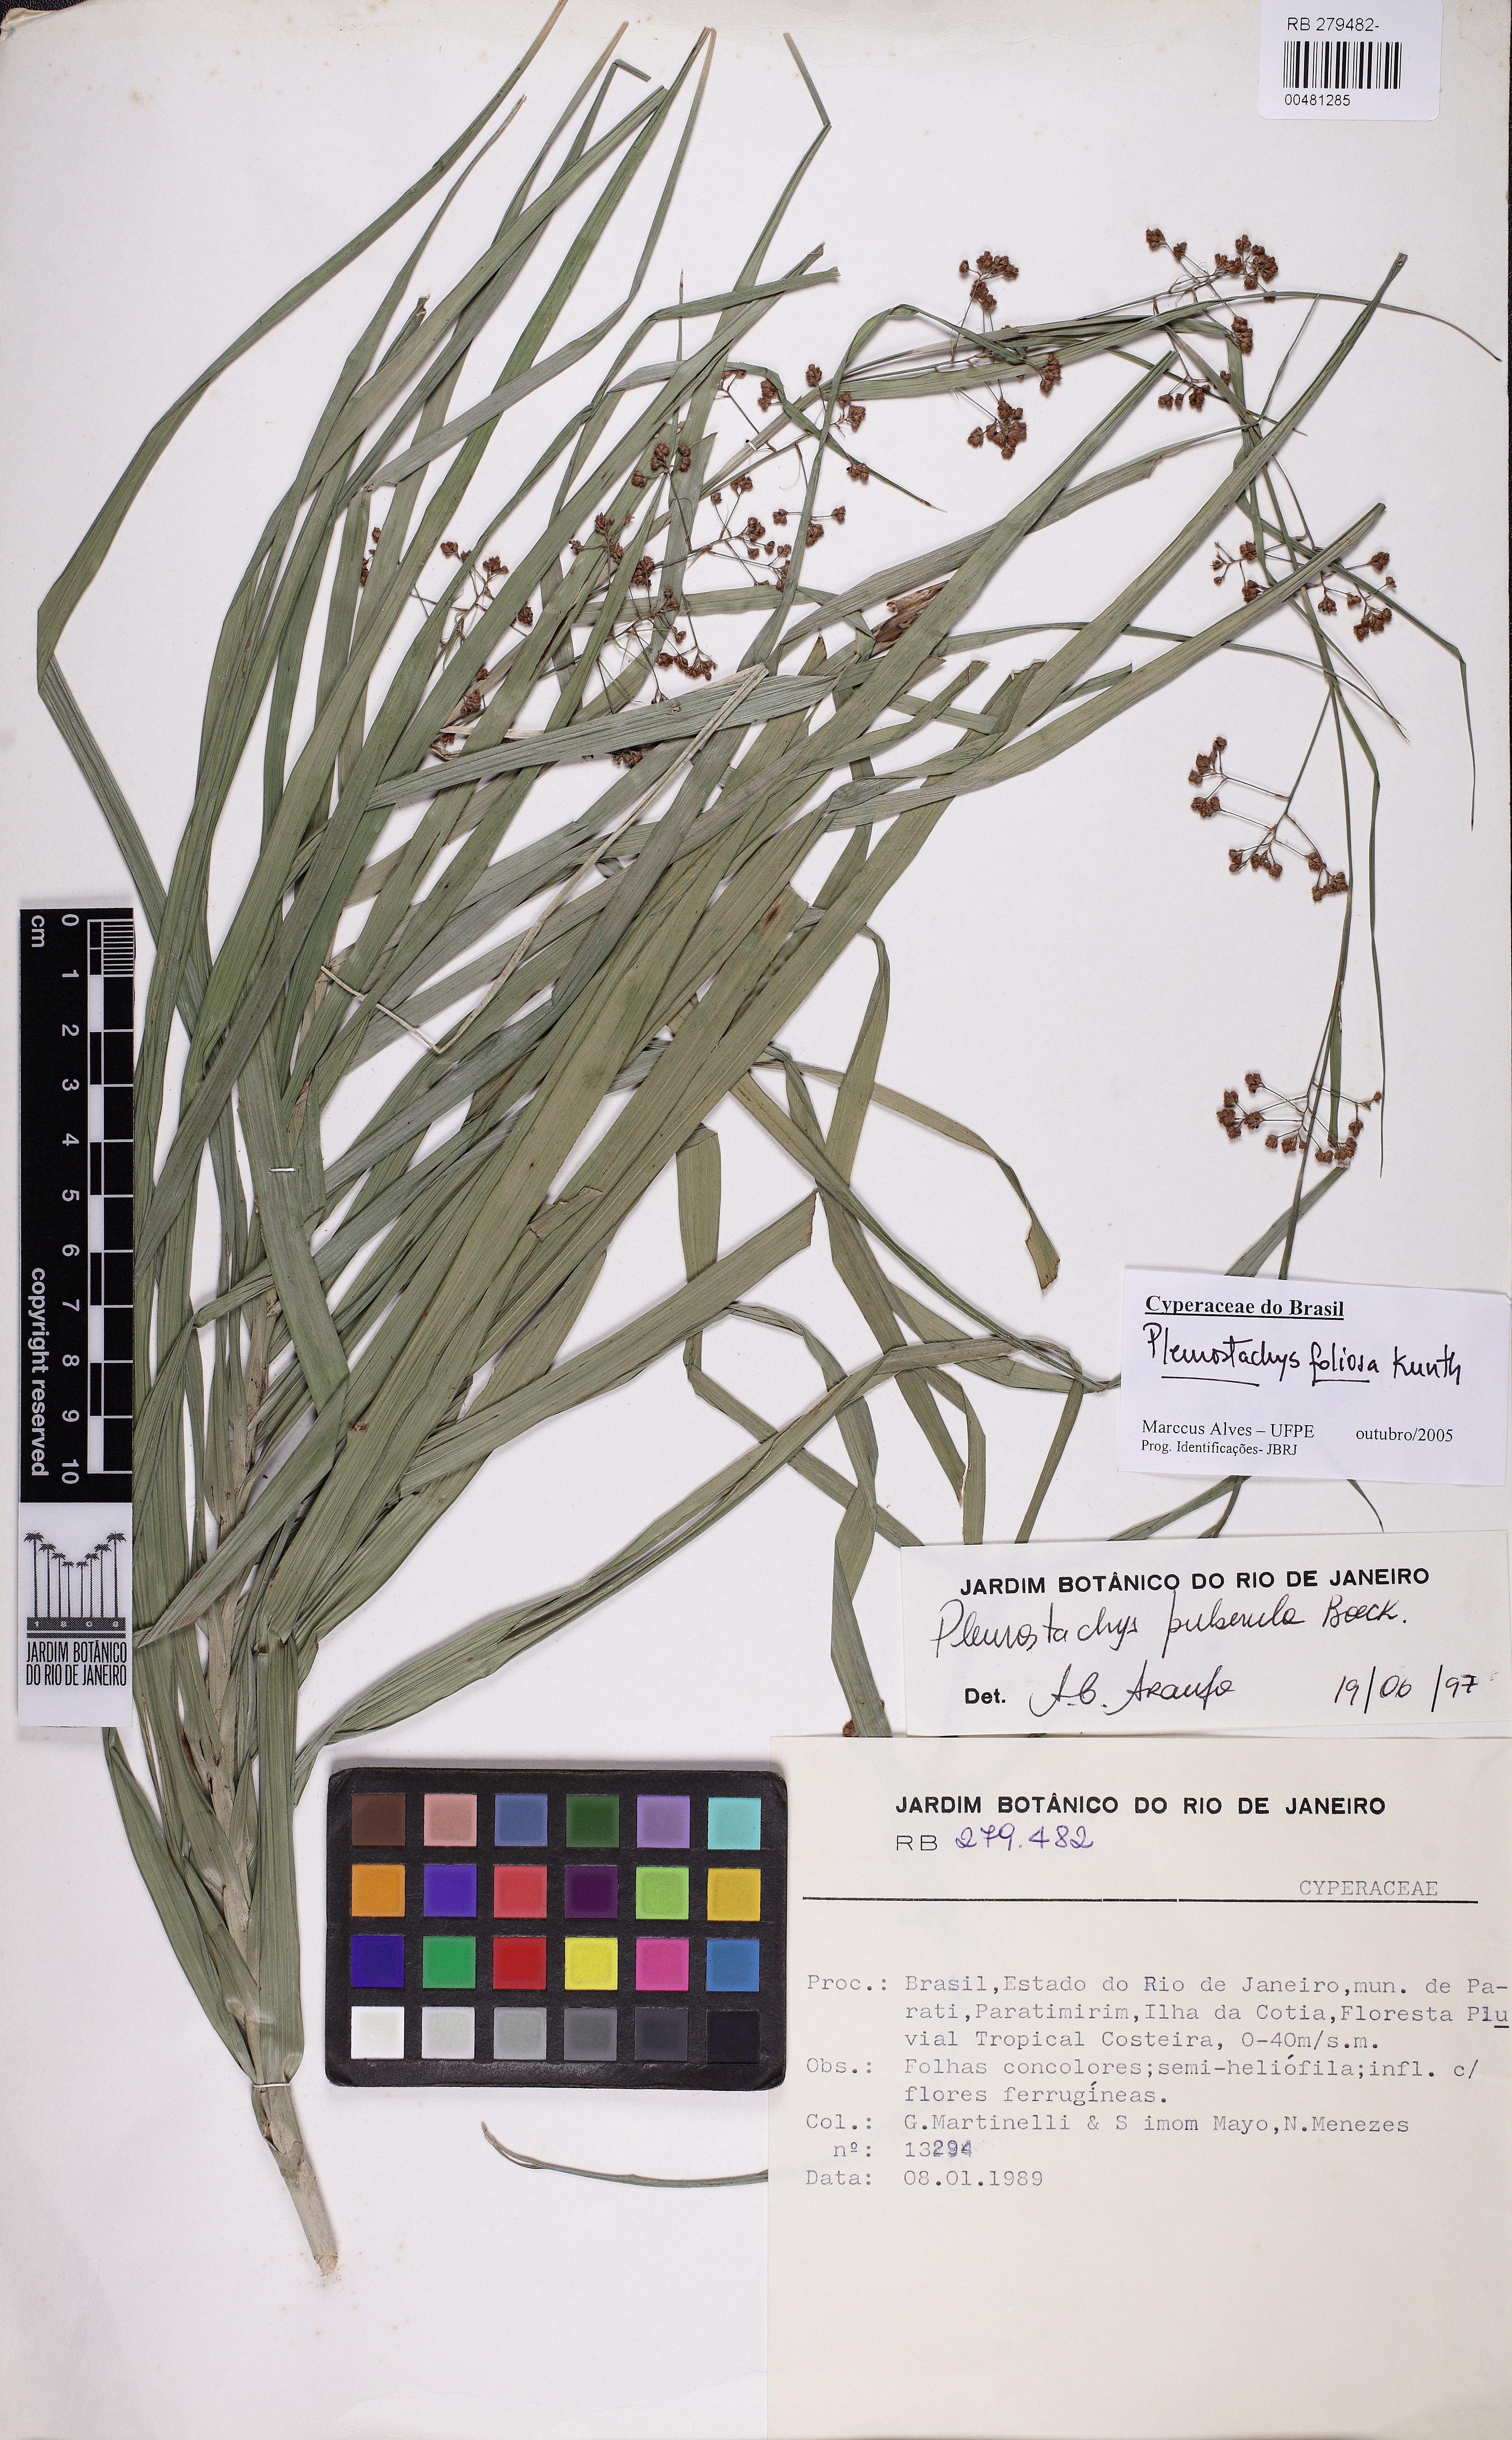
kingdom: Plantae
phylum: Tracheophyta
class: Liliopsida
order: Poales
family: Cyperaceae
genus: Rhynchospora
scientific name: Rhynchospora foliosa
